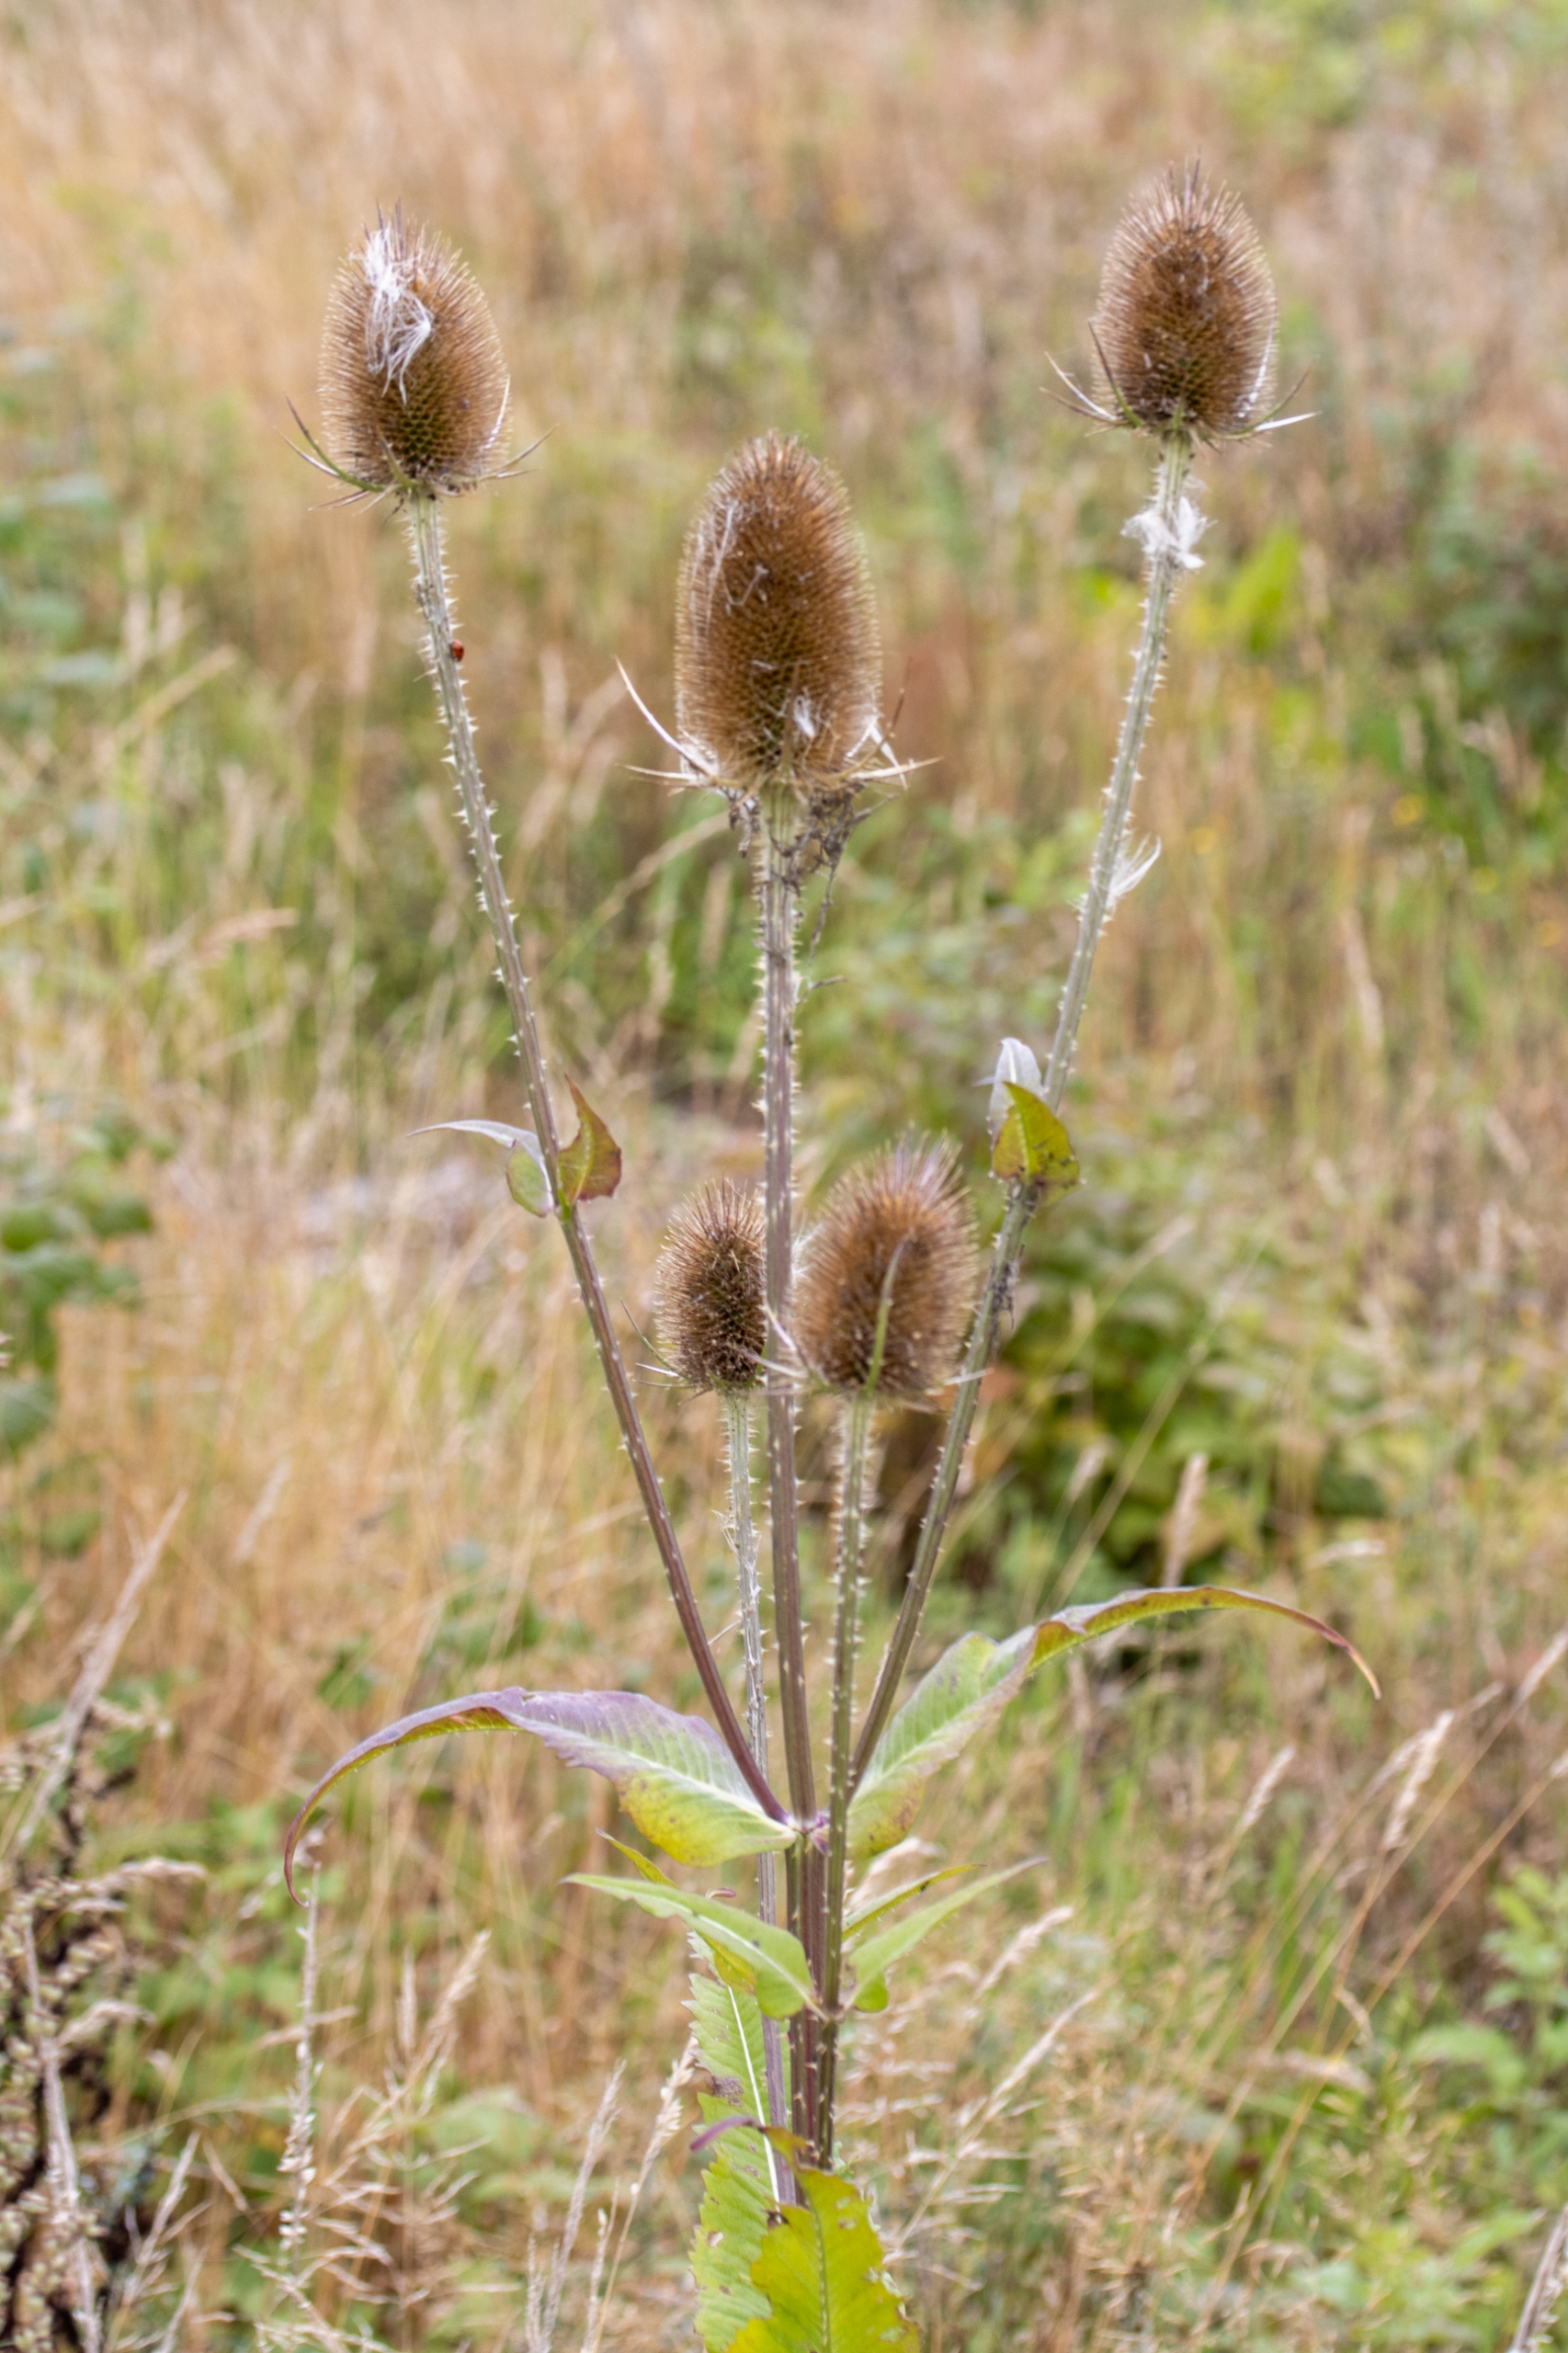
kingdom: Plantae
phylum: Tracheophyta
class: Magnoliopsida
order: Dipsacales
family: Caprifoliaceae
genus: Dipsacus
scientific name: Dipsacus fullonum
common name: Gærde-kartebolle
